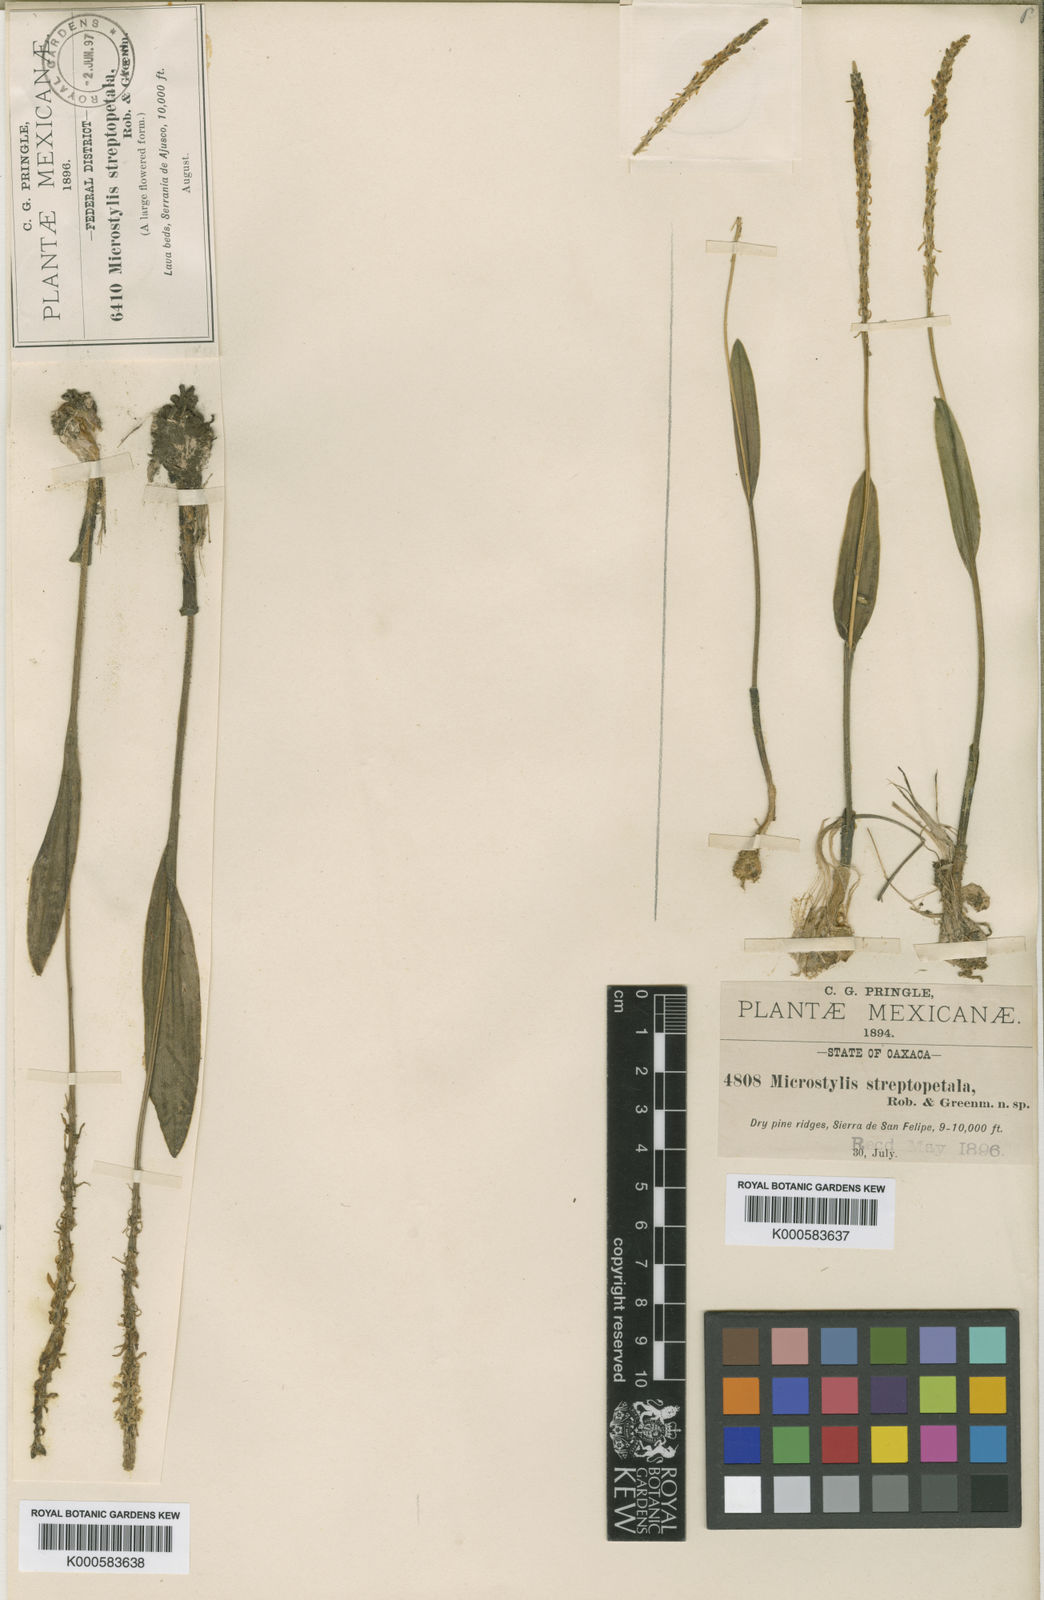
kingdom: Plantae
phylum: Tracheophyta
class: Liliopsida
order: Asparagales
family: Orchidaceae
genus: Malaxis
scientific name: Malaxis streptopetala
